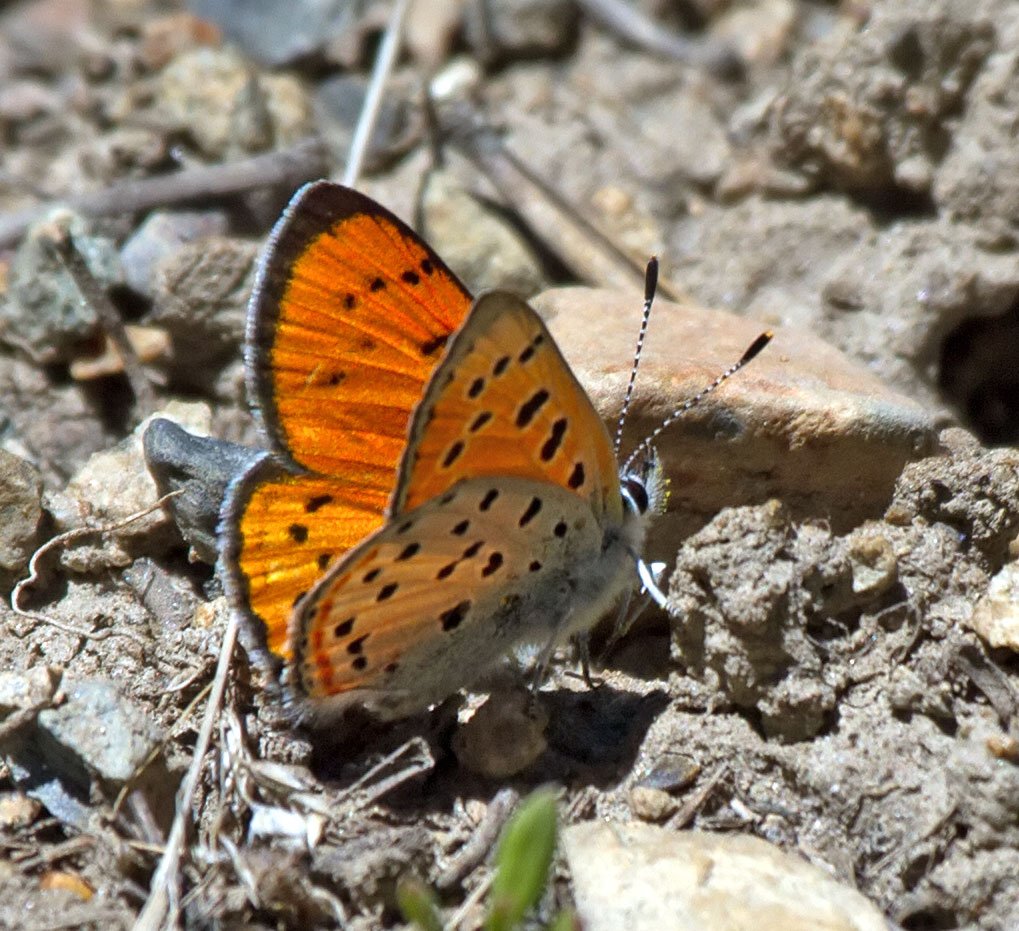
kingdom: Animalia
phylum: Arthropoda
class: Insecta
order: Lepidoptera
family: Lycaenidae
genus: Lycaena
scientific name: Lycaena cupreus
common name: Lustrous Copper
